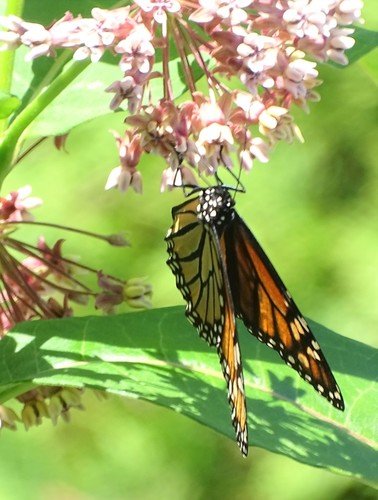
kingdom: Animalia
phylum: Arthropoda
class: Insecta
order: Lepidoptera
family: Nymphalidae
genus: Danaus
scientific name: Danaus plexippus
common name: Monarch
